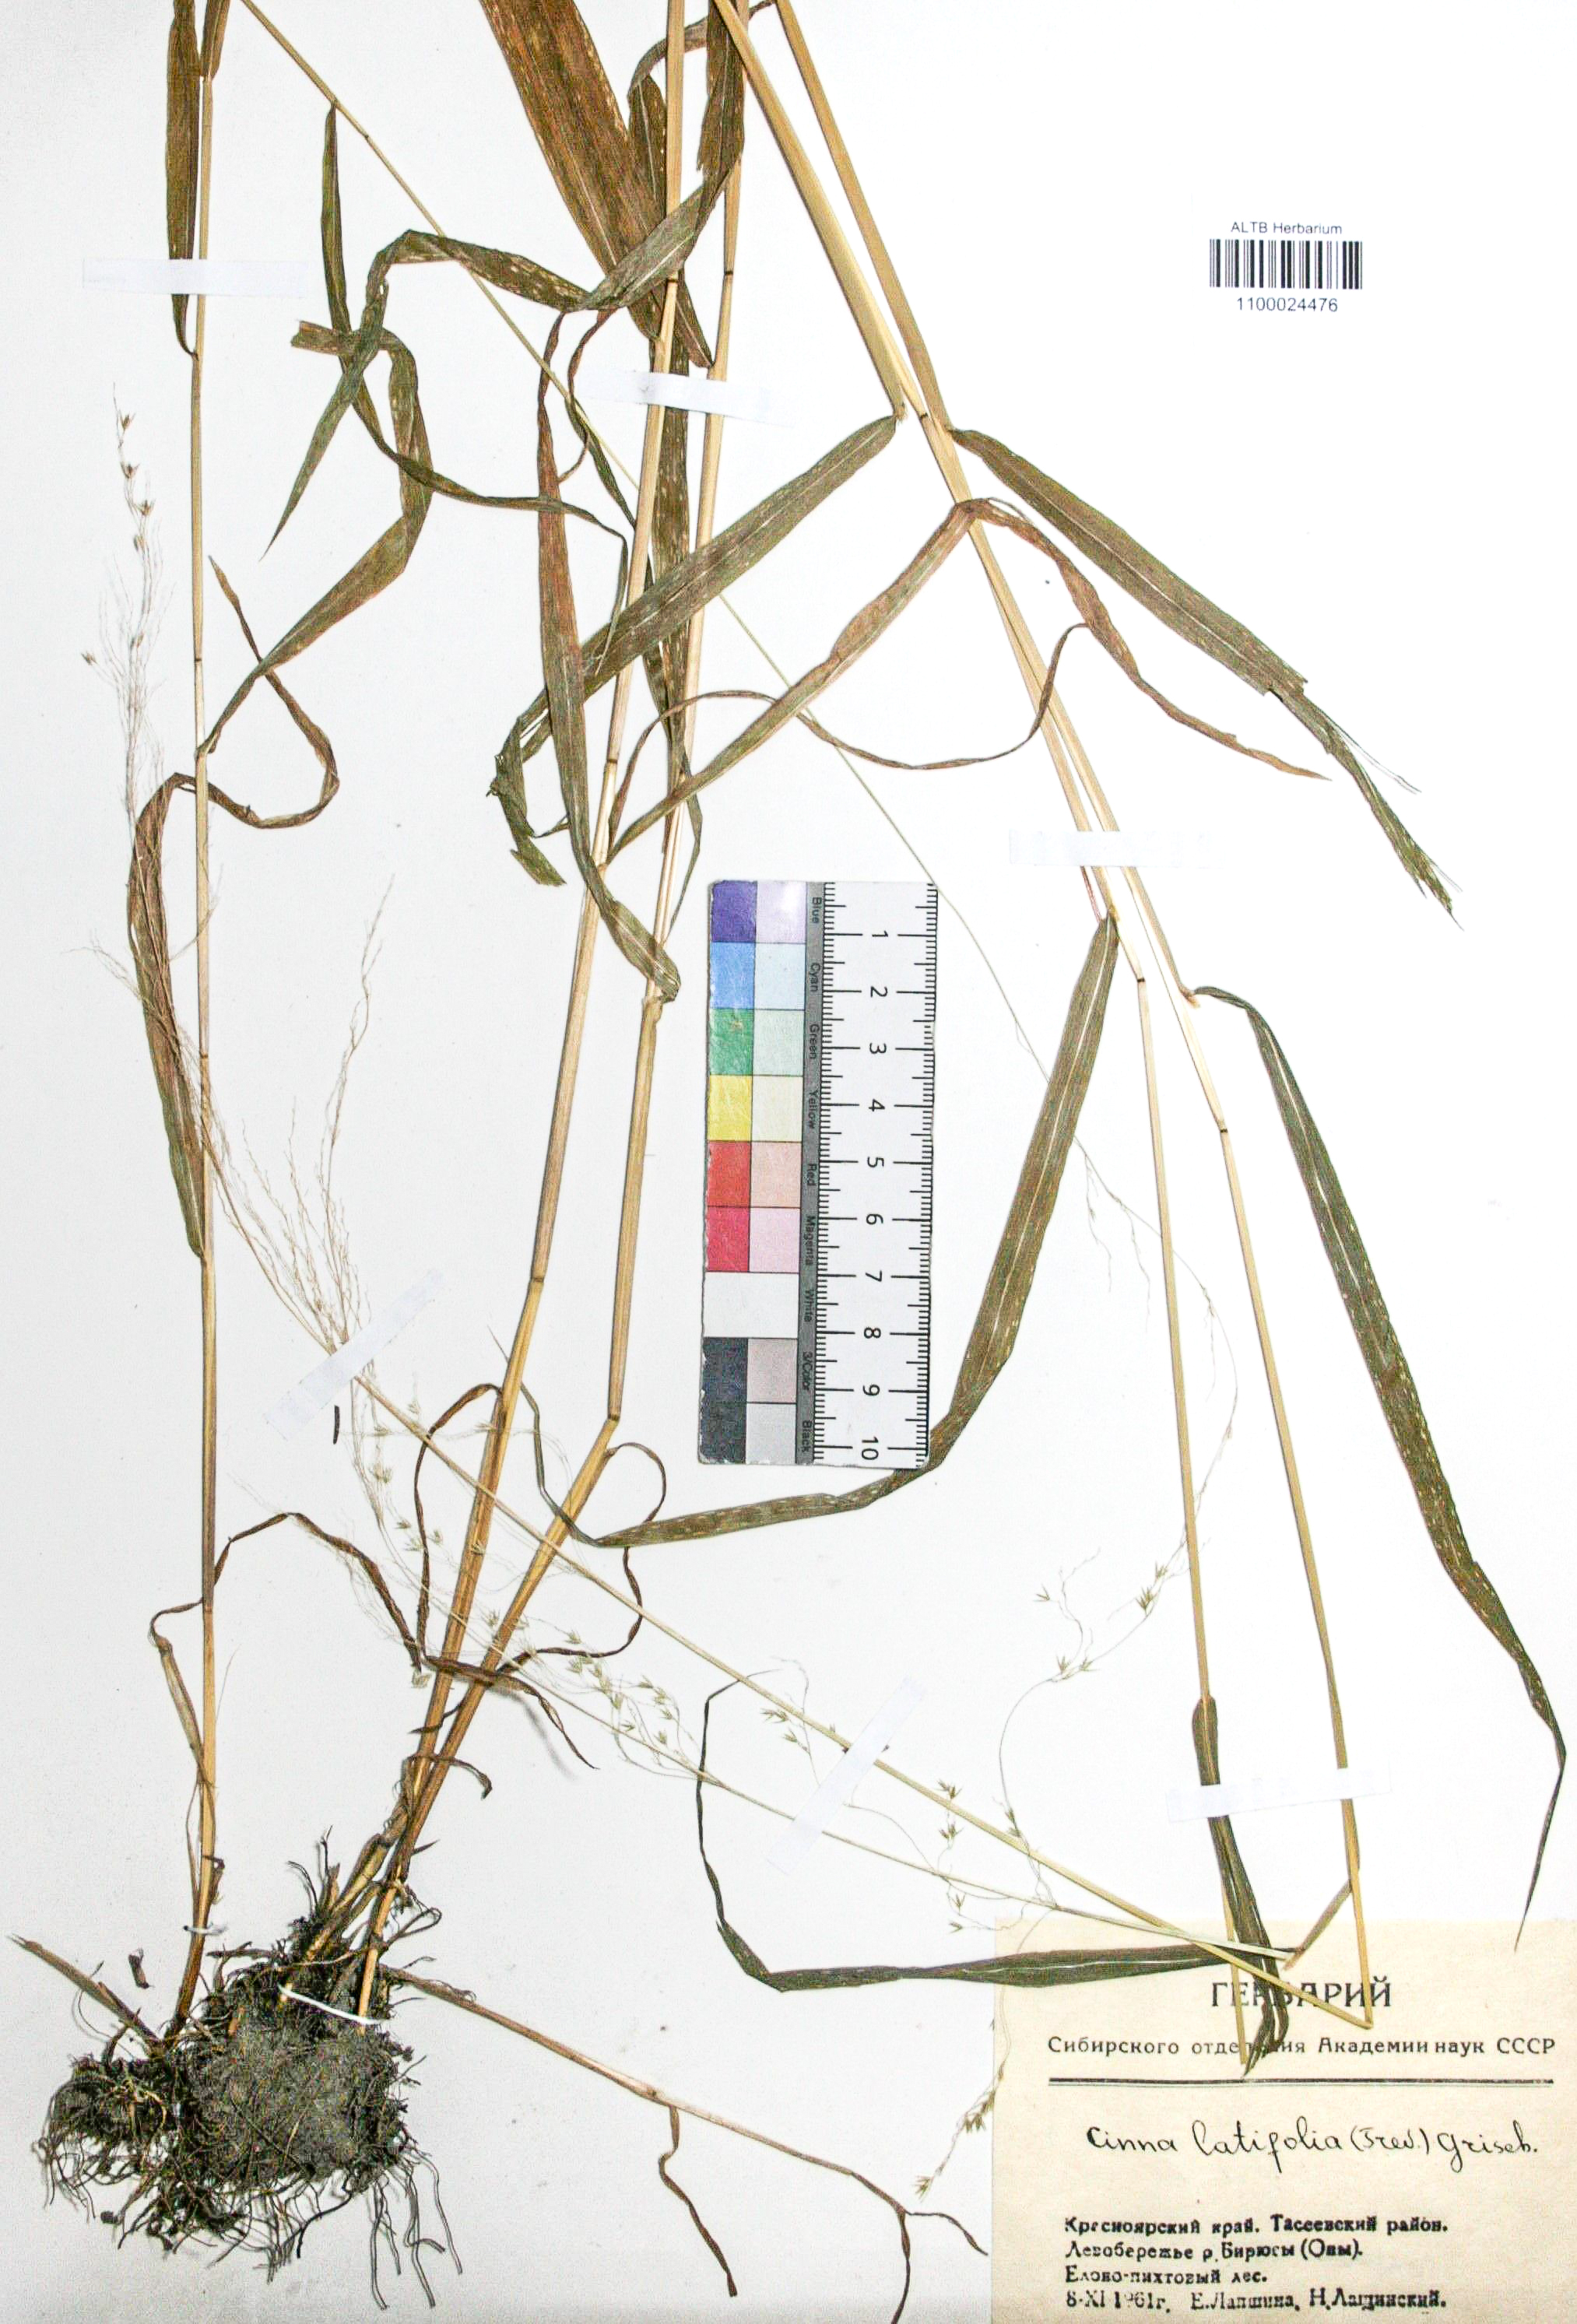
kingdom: Plantae
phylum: Tracheophyta
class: Liliopsida
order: Poales
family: Poaceae
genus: Cinna
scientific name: Cinna latifolia
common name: Drooping woodreed
